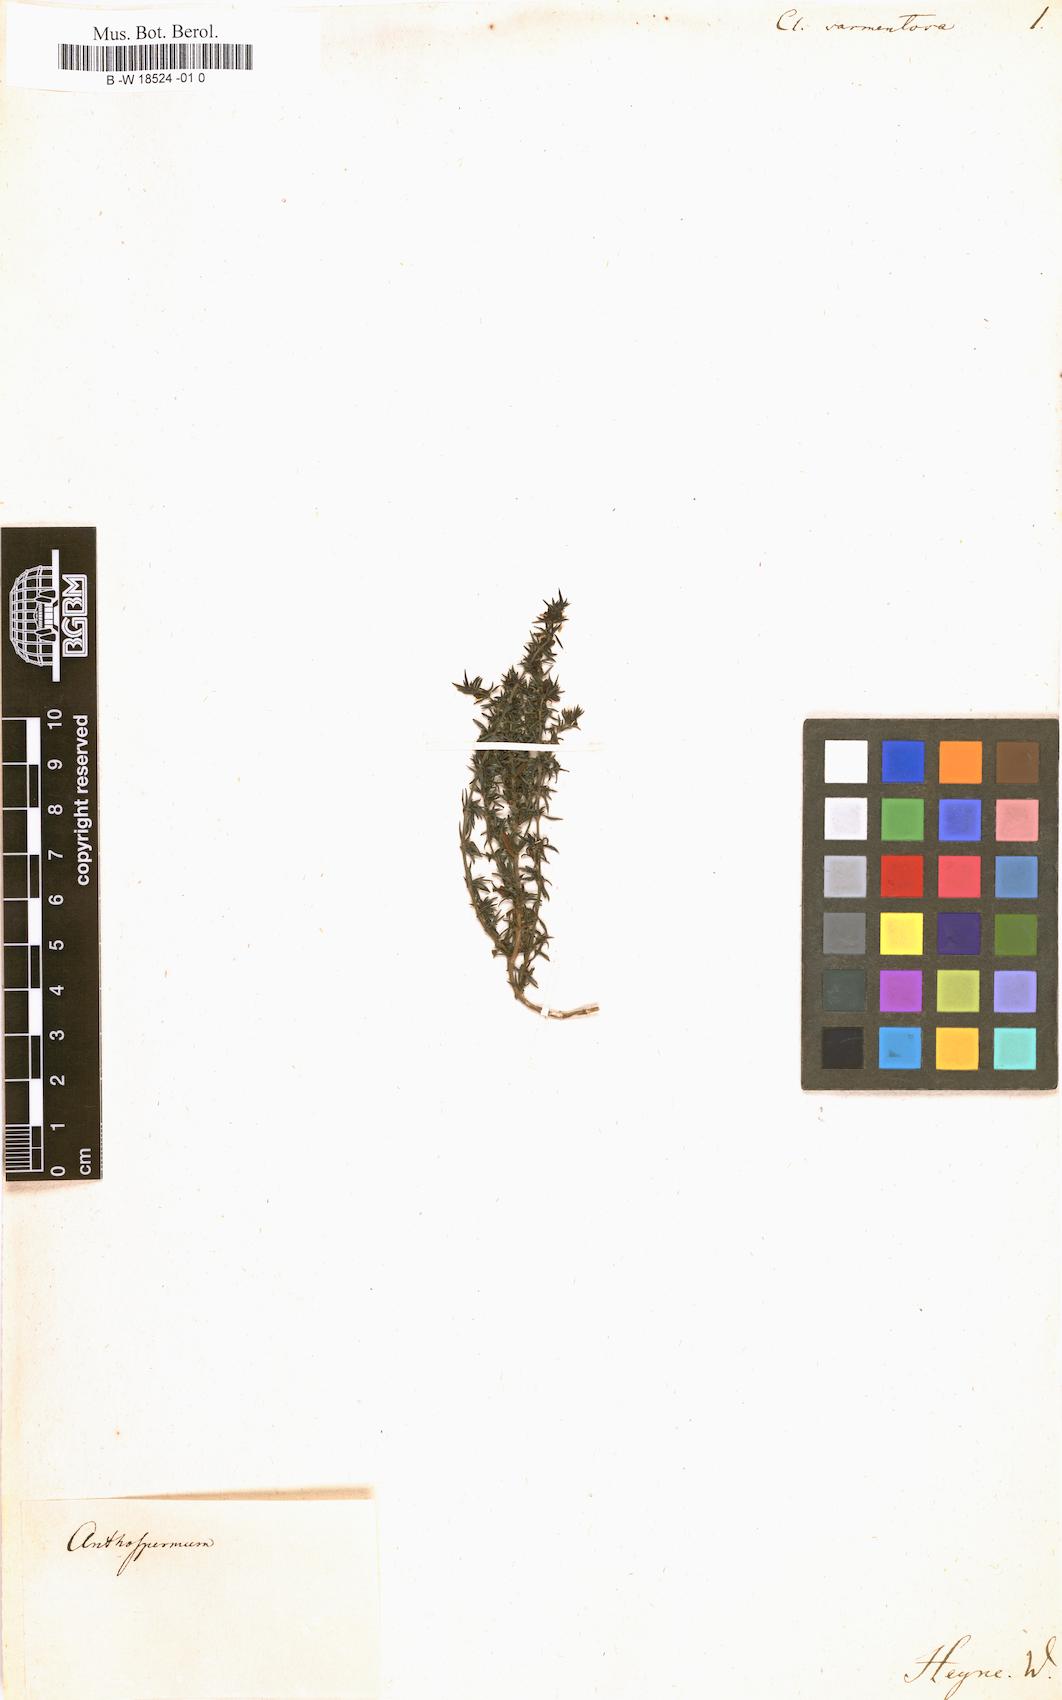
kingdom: Plantae
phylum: Tracheophyta
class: Magnoliopsida
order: Rosales
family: Rosaceae
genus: Cliffortia
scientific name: Cliffortia hirta
